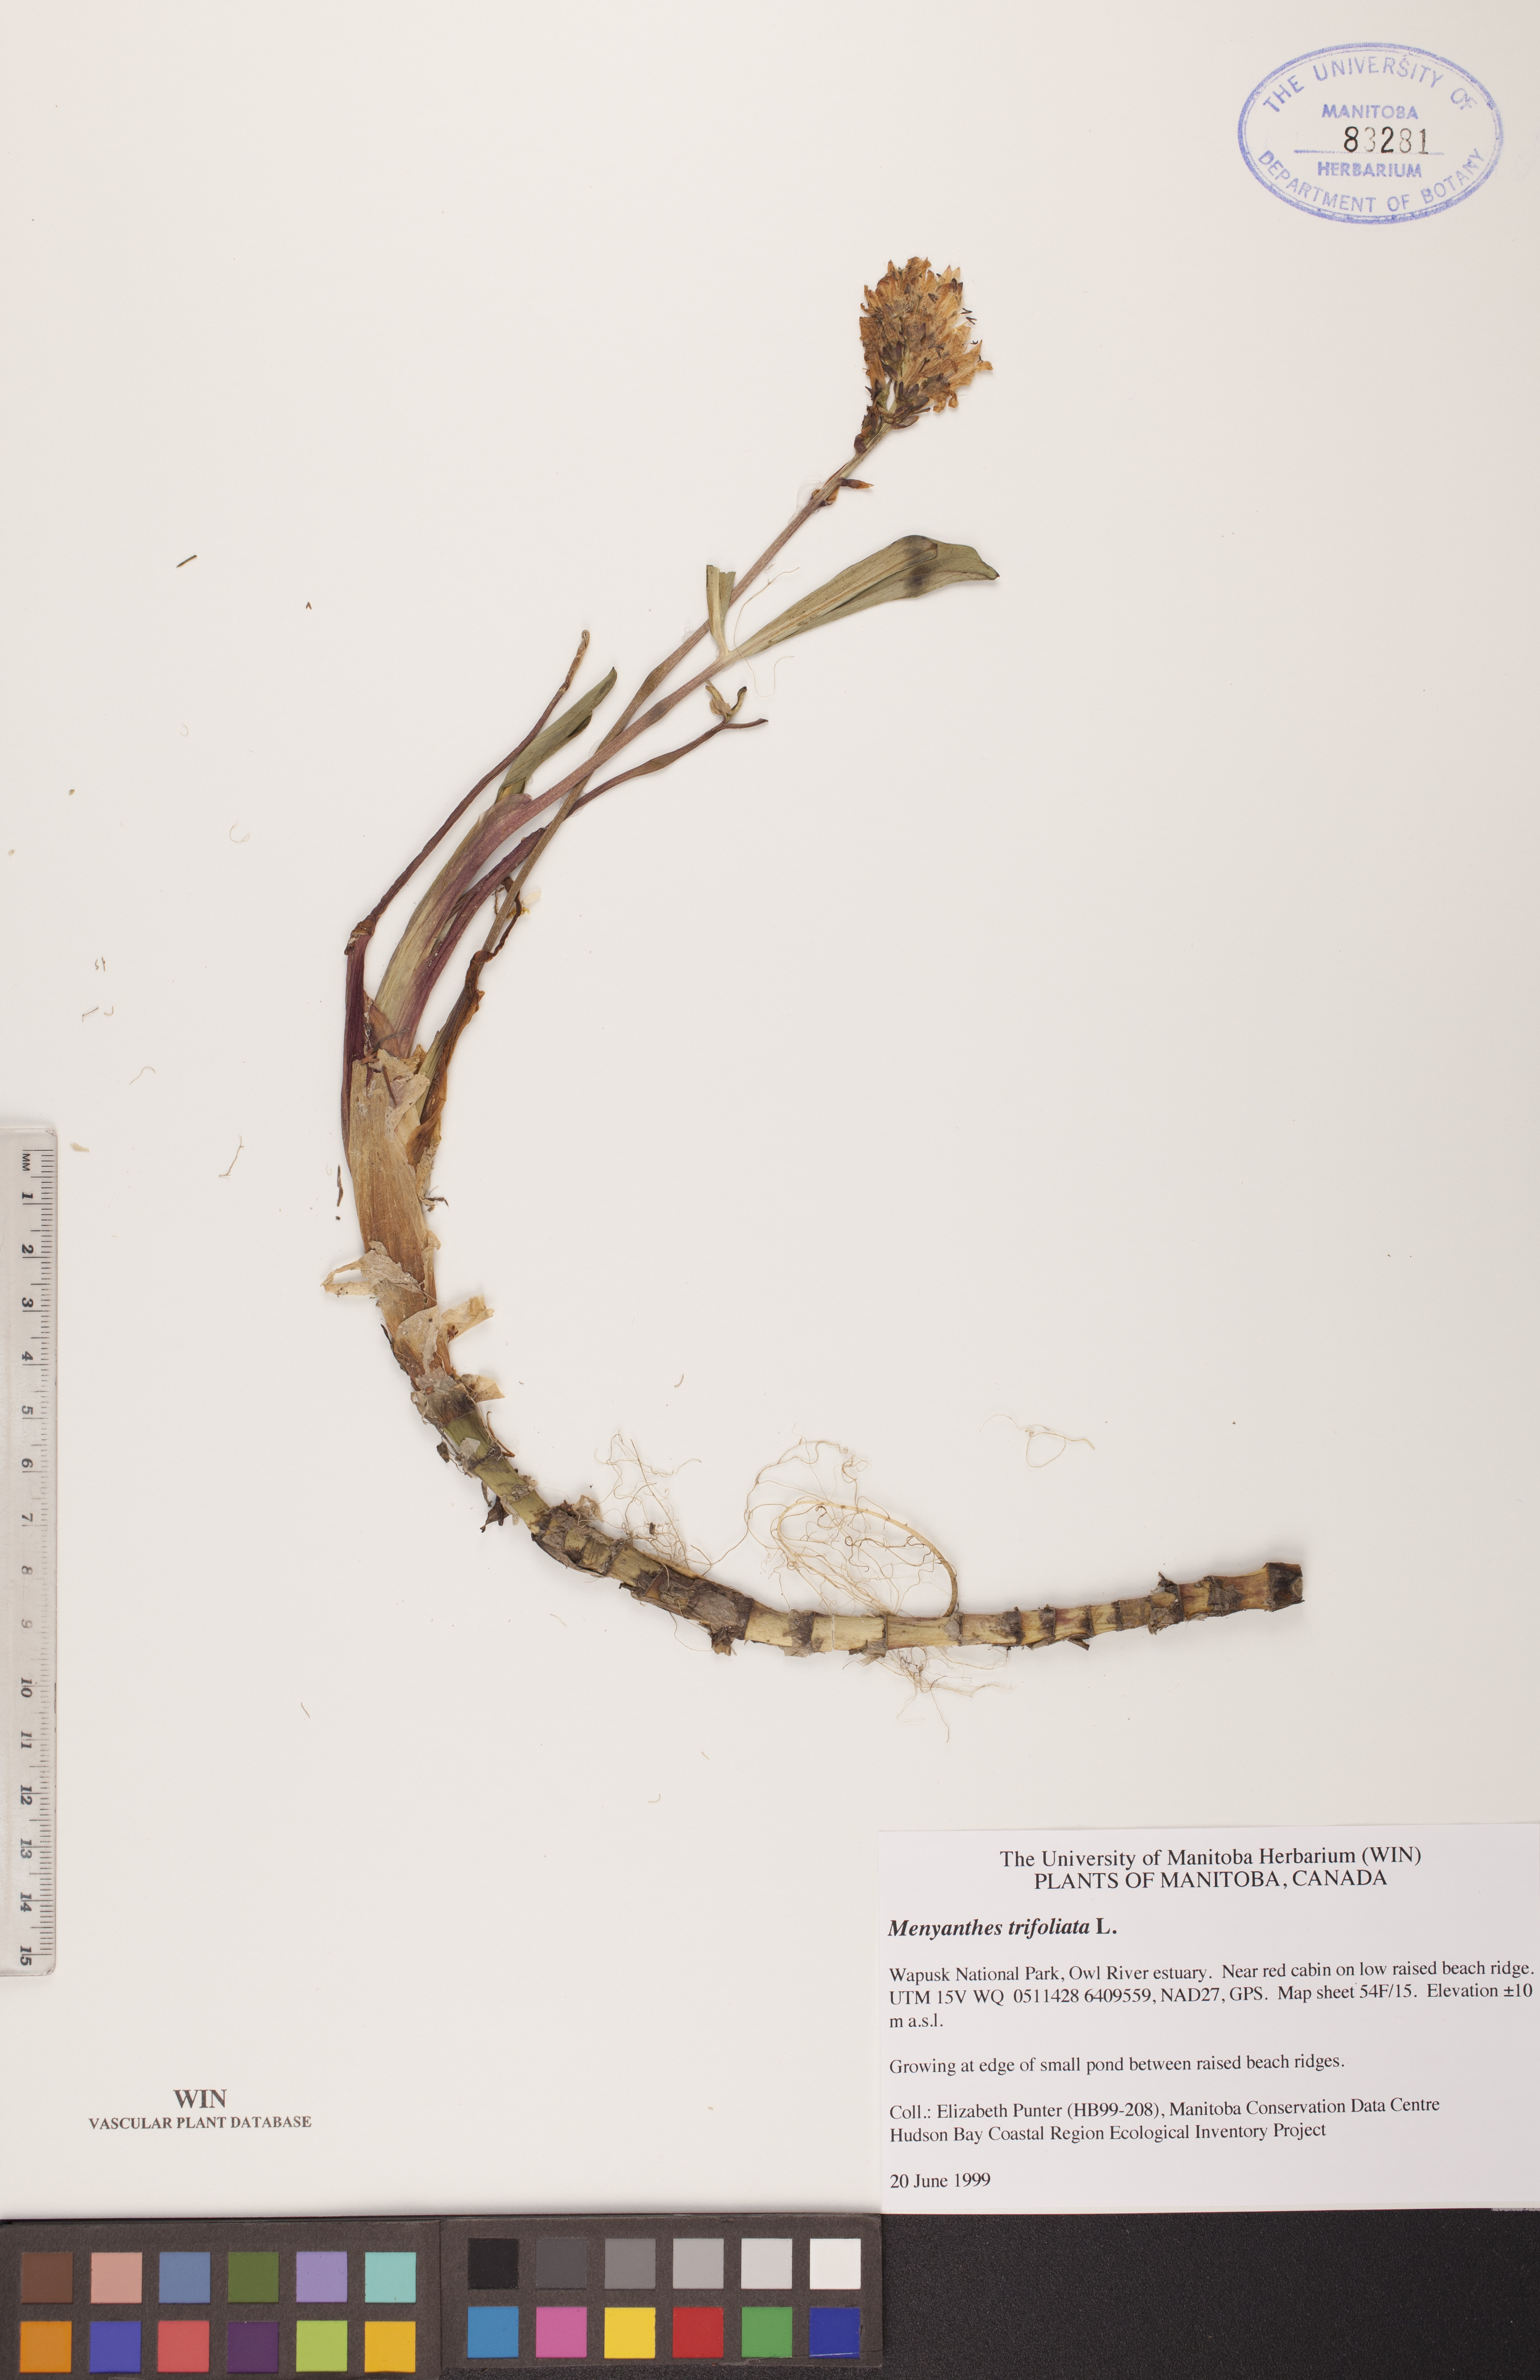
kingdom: Plantae
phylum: Tracheophyta
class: Magnoliopsida
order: Asterales
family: Menyanthaceae
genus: Menyanthes
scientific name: Menyanthes trifoliata
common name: Bogbean
